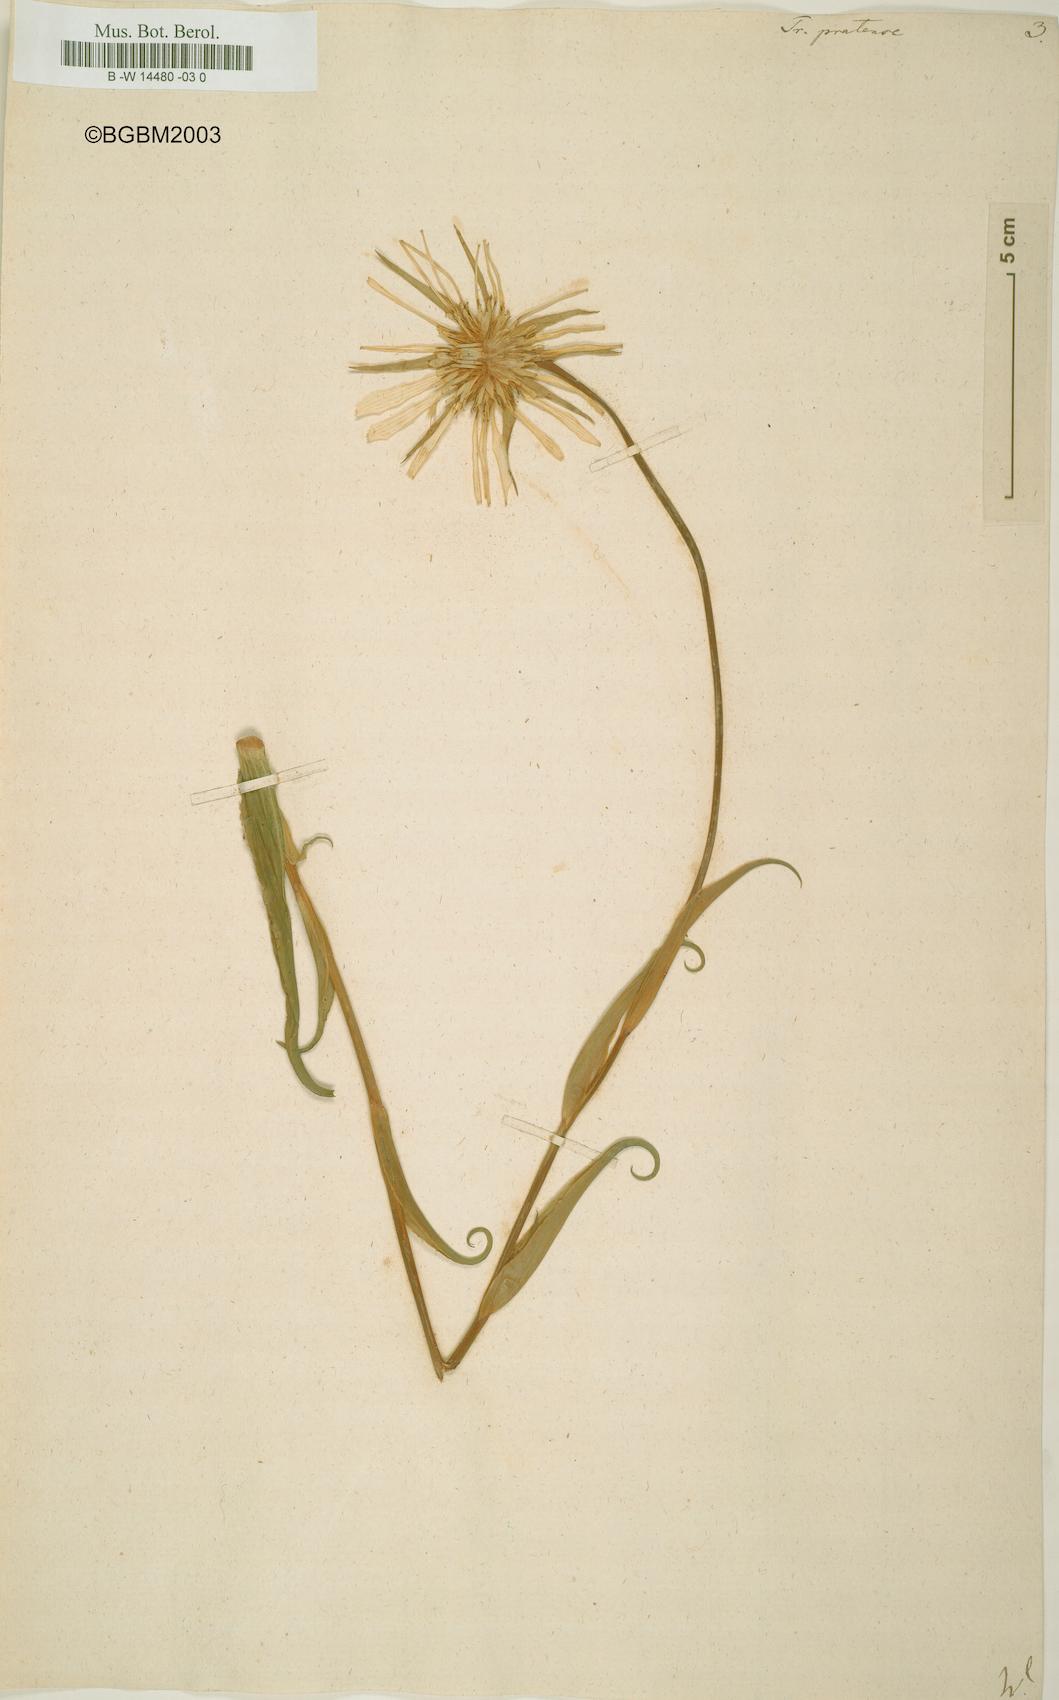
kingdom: Plantae
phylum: Tracheophyta
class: Magnoliopsida
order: Asterales
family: Asteraceae
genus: Tragopogon
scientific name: Tragopogon pratensis
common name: Goat's-beard
